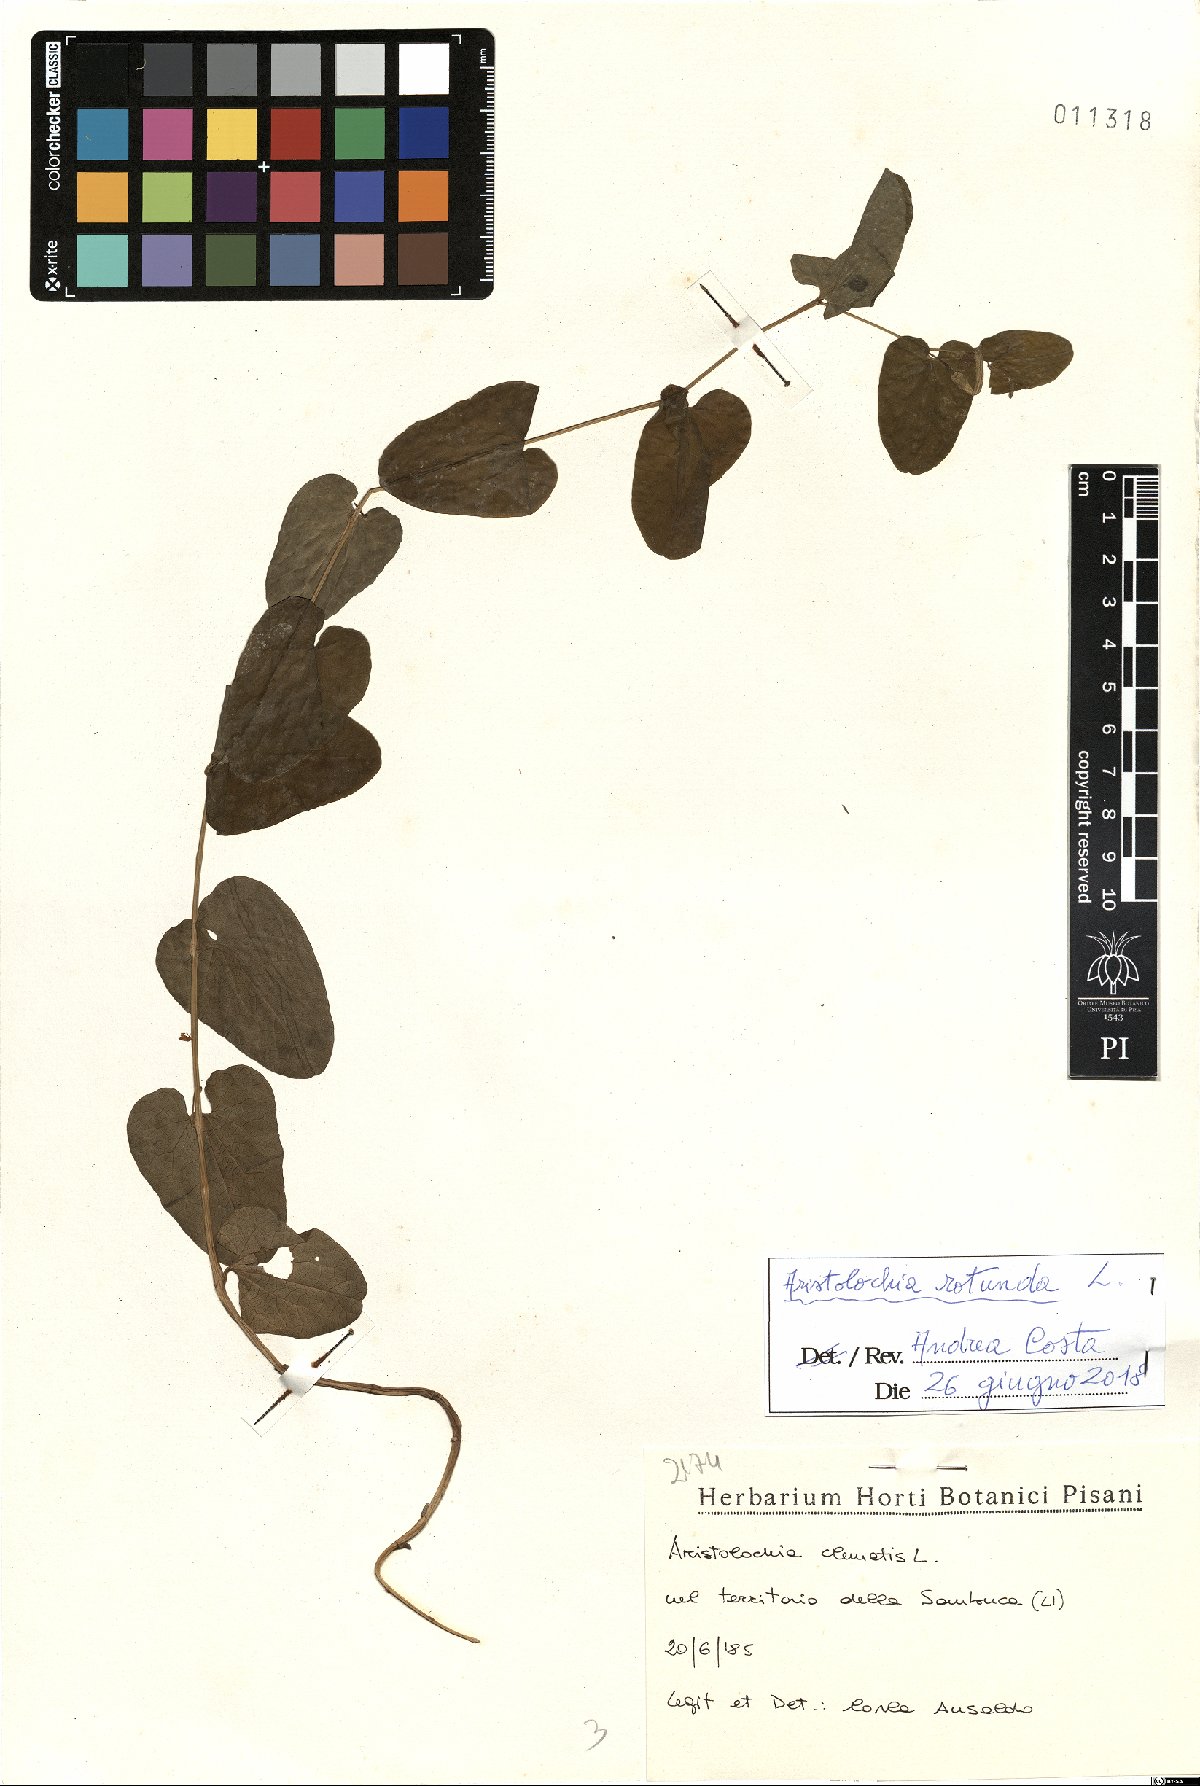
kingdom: Plantae
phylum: Tracheophyta
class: Magnoliopsida
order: Piperales
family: Aristolochiaceae
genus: Aristolochia
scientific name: Aristolochia rotunda
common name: Smearwort
